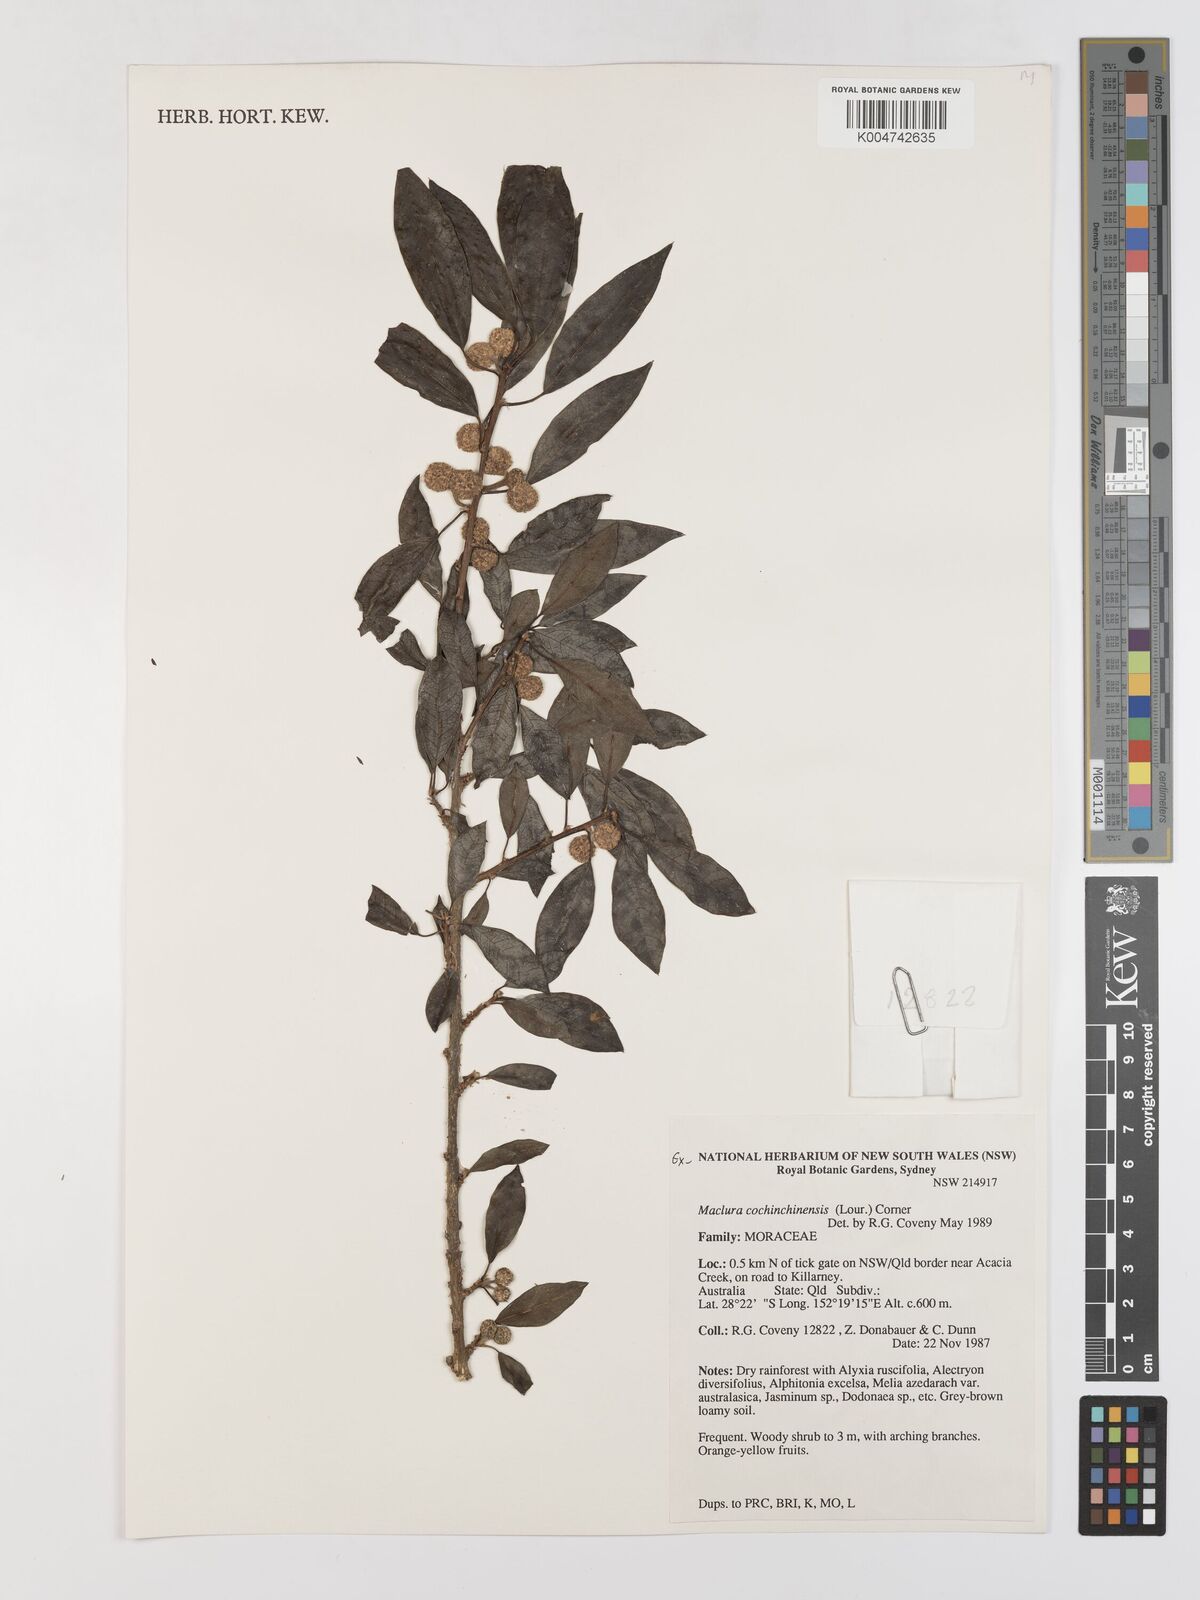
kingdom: Plantae
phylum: Tracheophyta
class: Magnoliopsida
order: Rosales
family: Moraceae
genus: Maclura
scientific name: Maclura cochinchinensis
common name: Cockspurthorn
